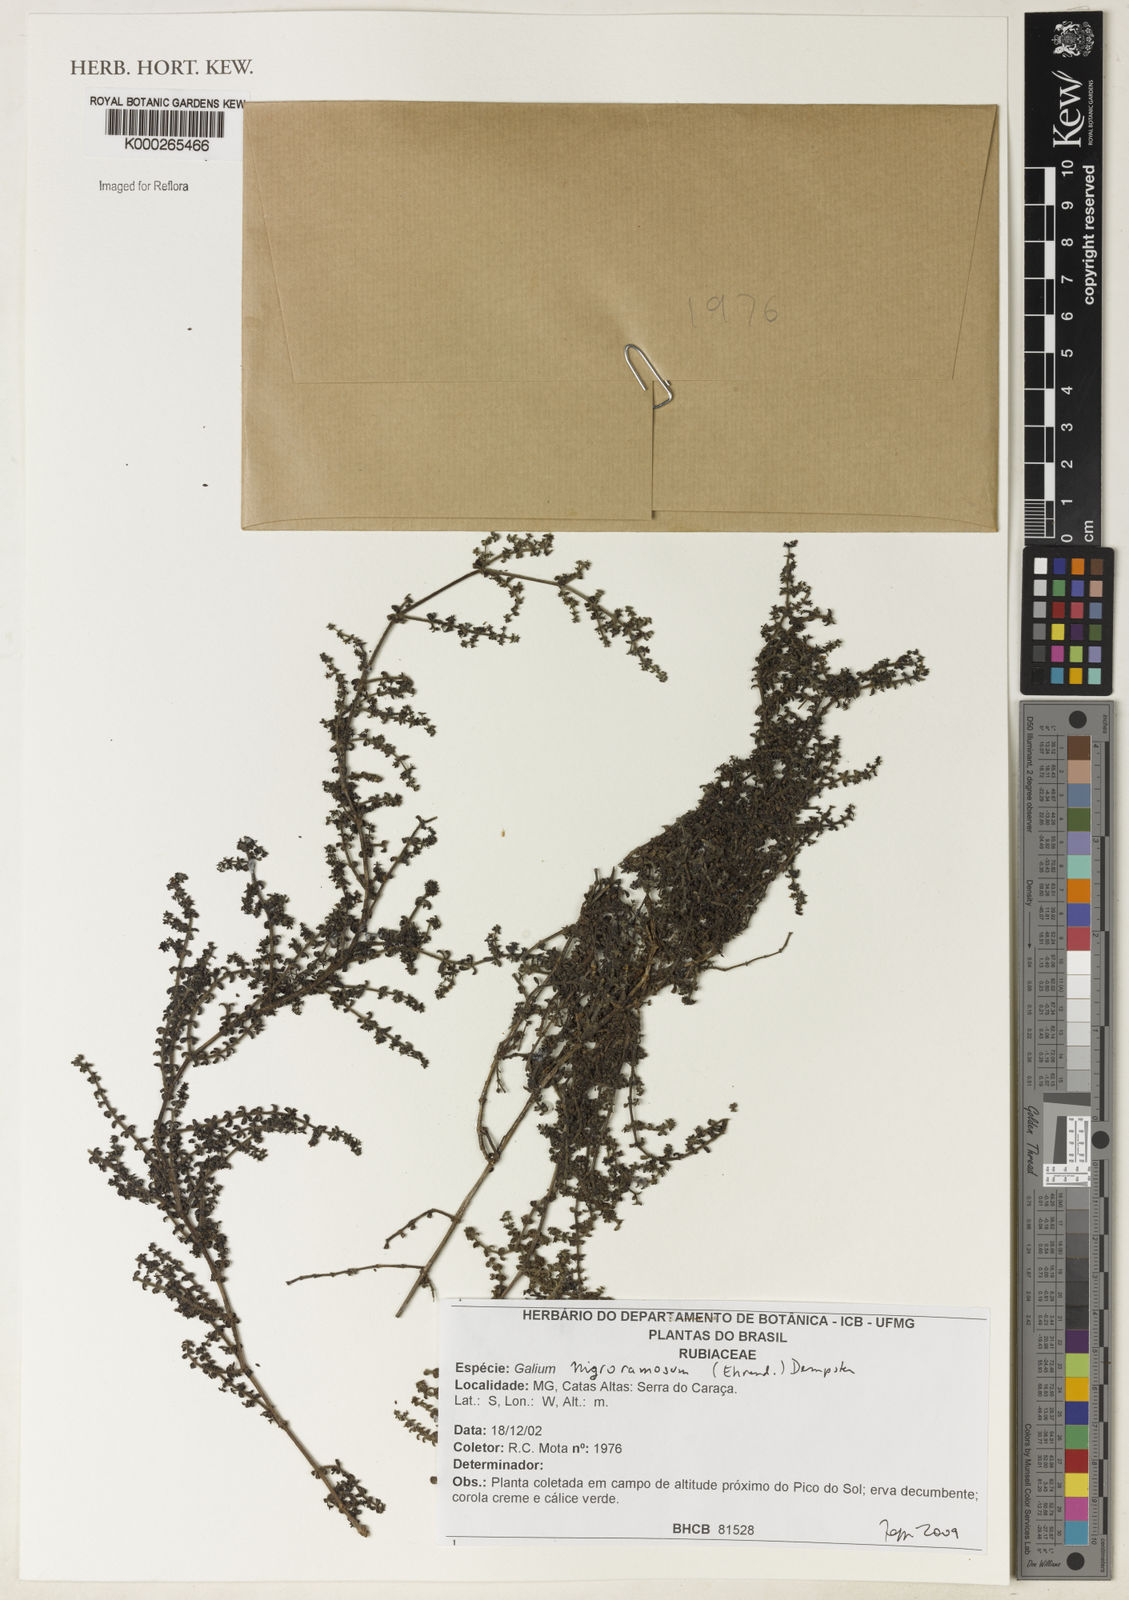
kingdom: Plantae
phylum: Tracheophyta
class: Magnoliopsida
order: Gentianales
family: Rubiaceae
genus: Galium
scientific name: Galium nigroramosum
